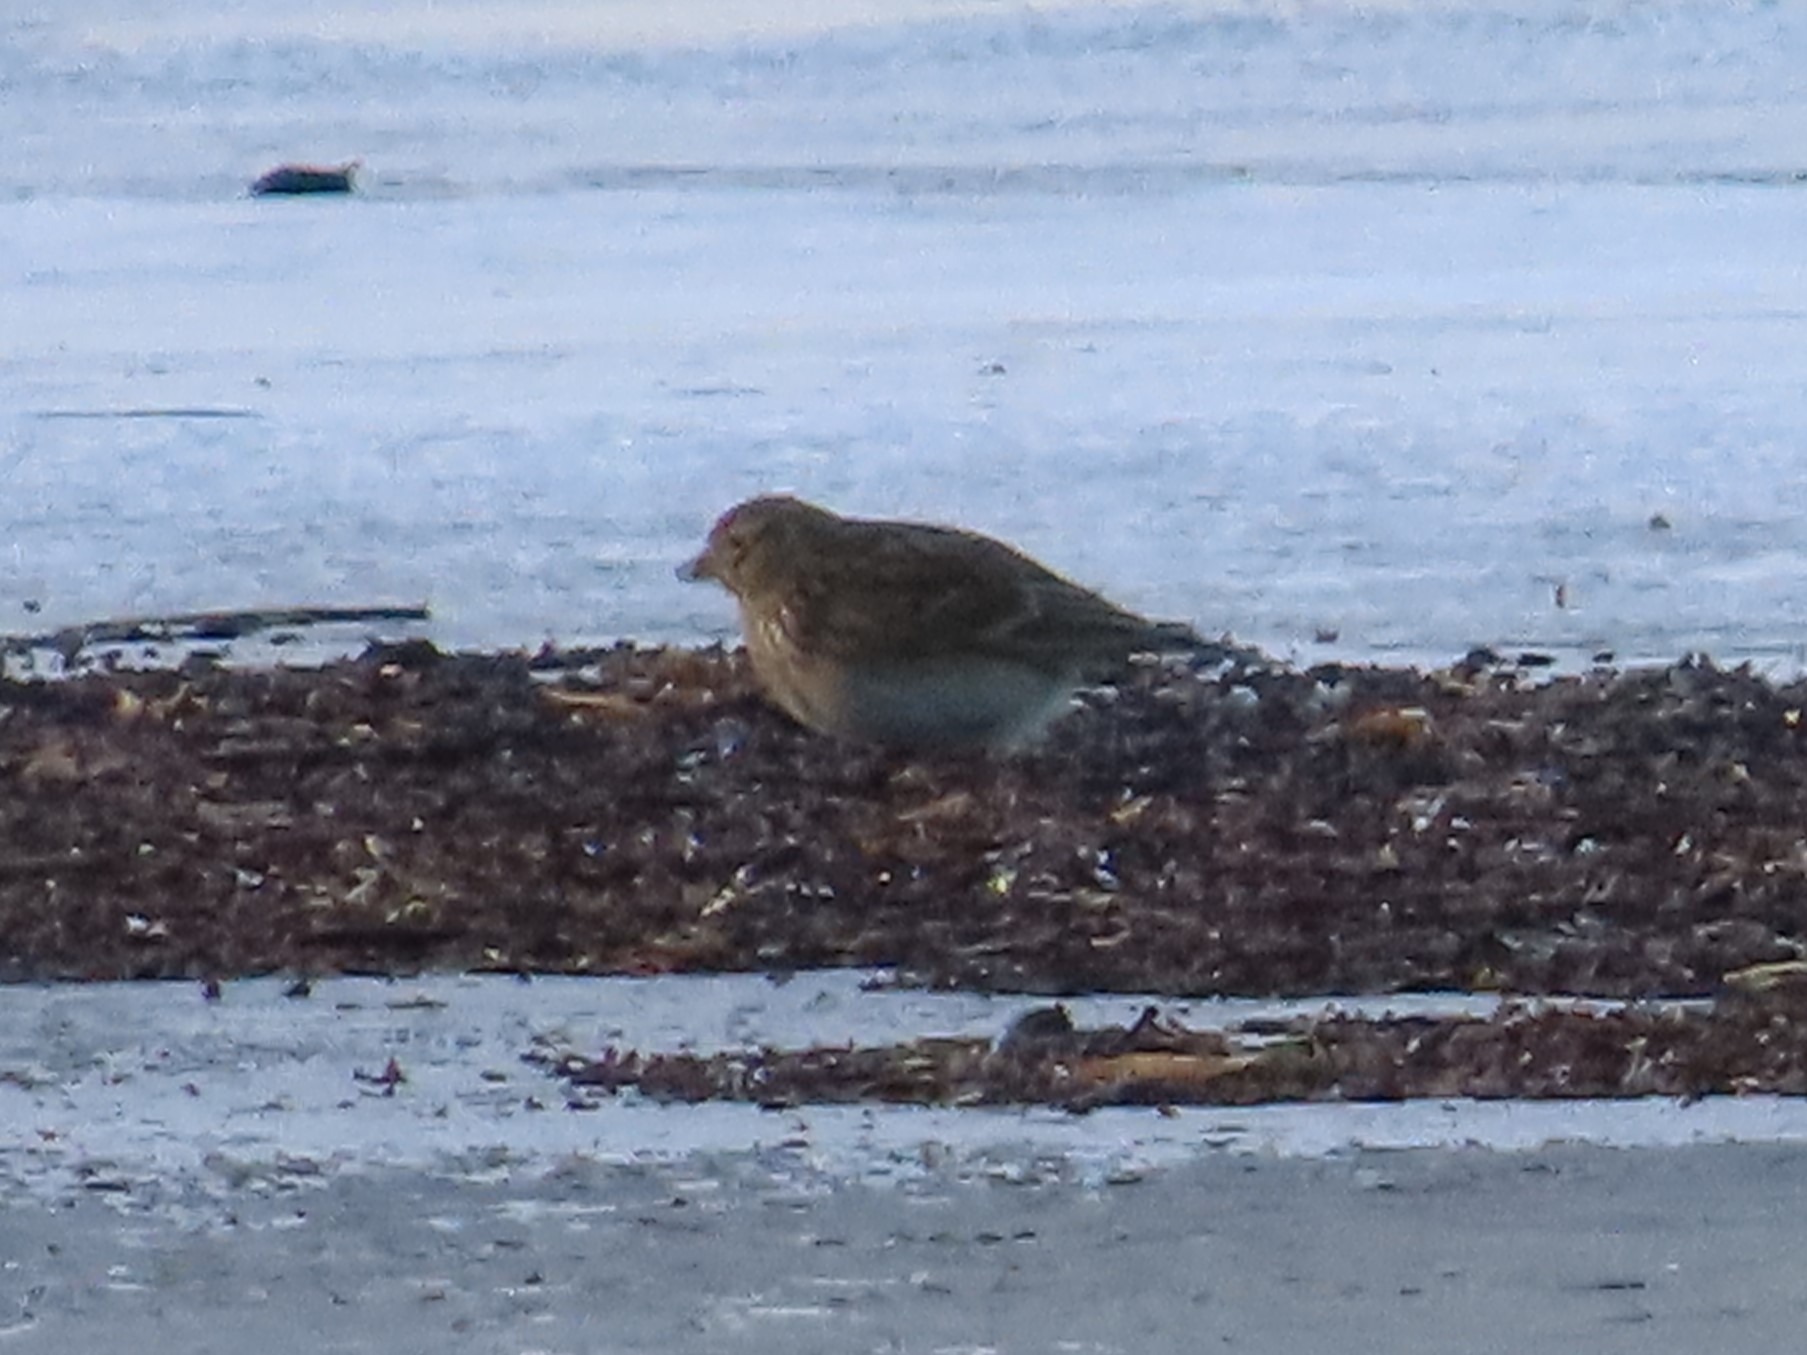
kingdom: Animalia
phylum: Chordata
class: Aves
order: Passeriformes
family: Alaudidae
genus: Alauda
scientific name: Alauda arvensis
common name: Sanglærke
